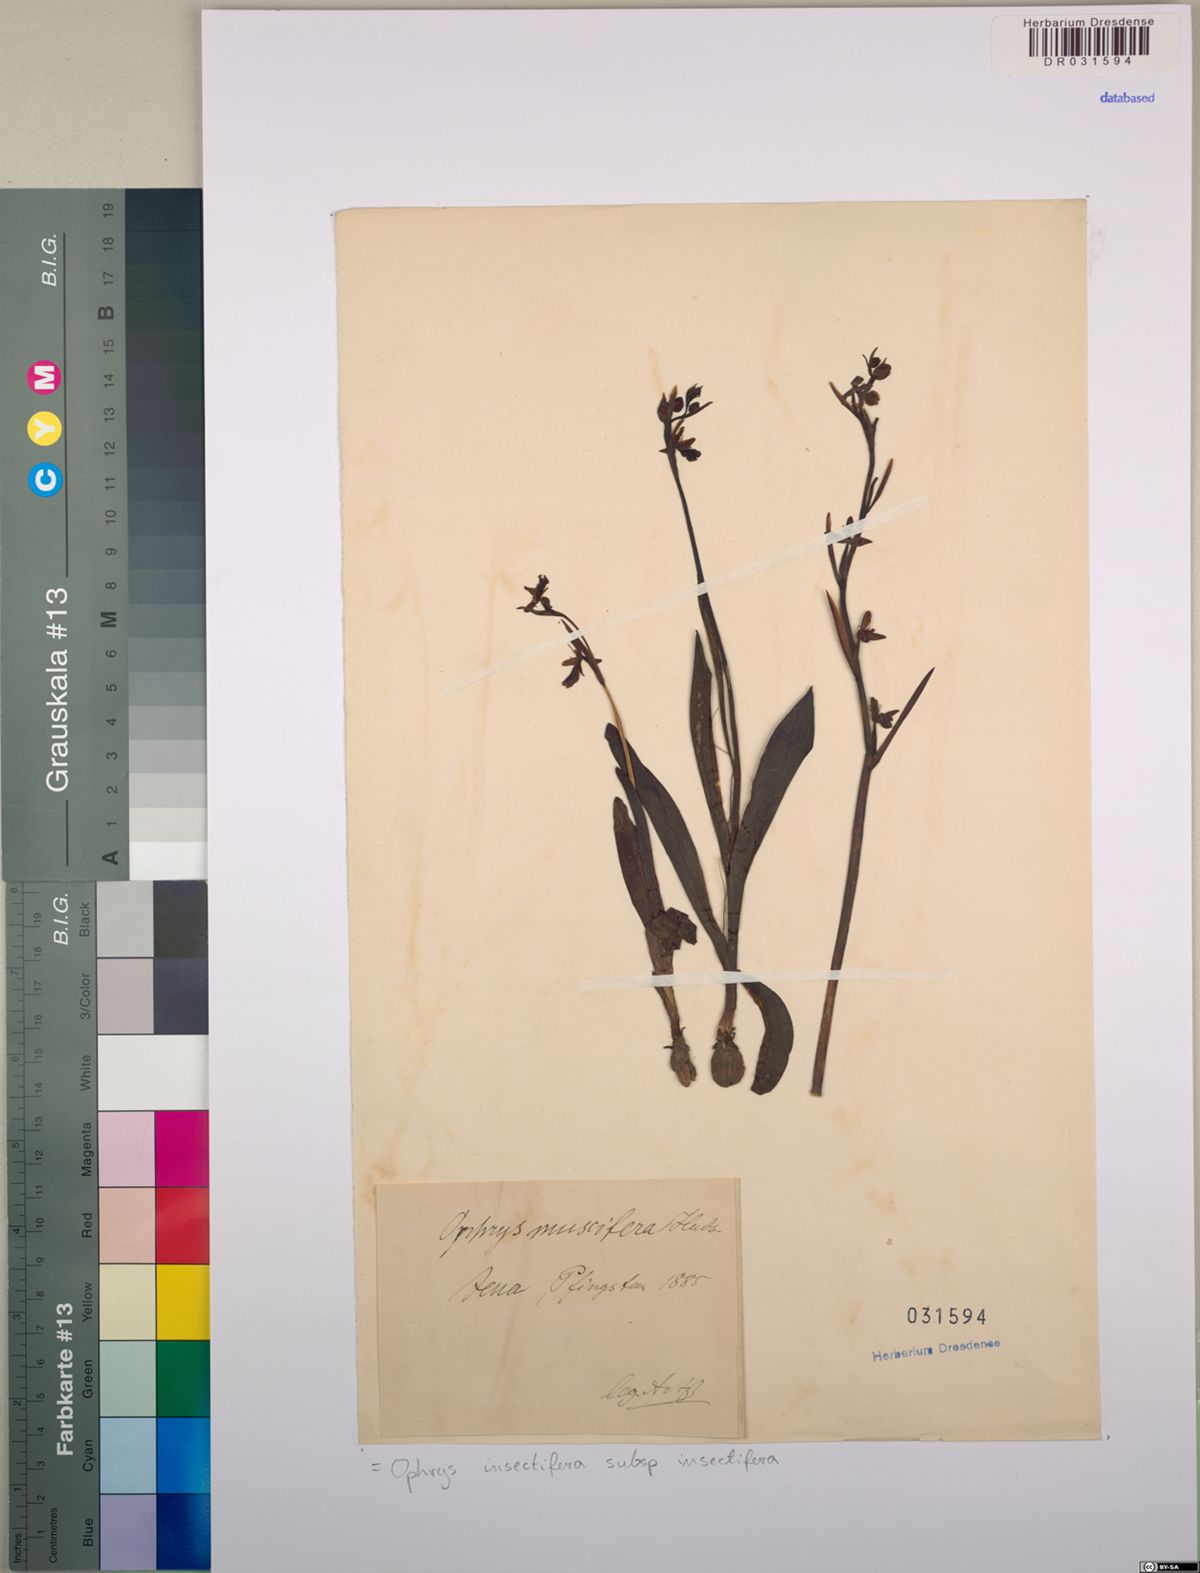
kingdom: Plantae
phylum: Tracheophyta
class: Liliopsida
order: Asparagales
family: Orchidaceae
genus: Ophrys
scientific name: Ophrys insectifera
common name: Fly orchid
